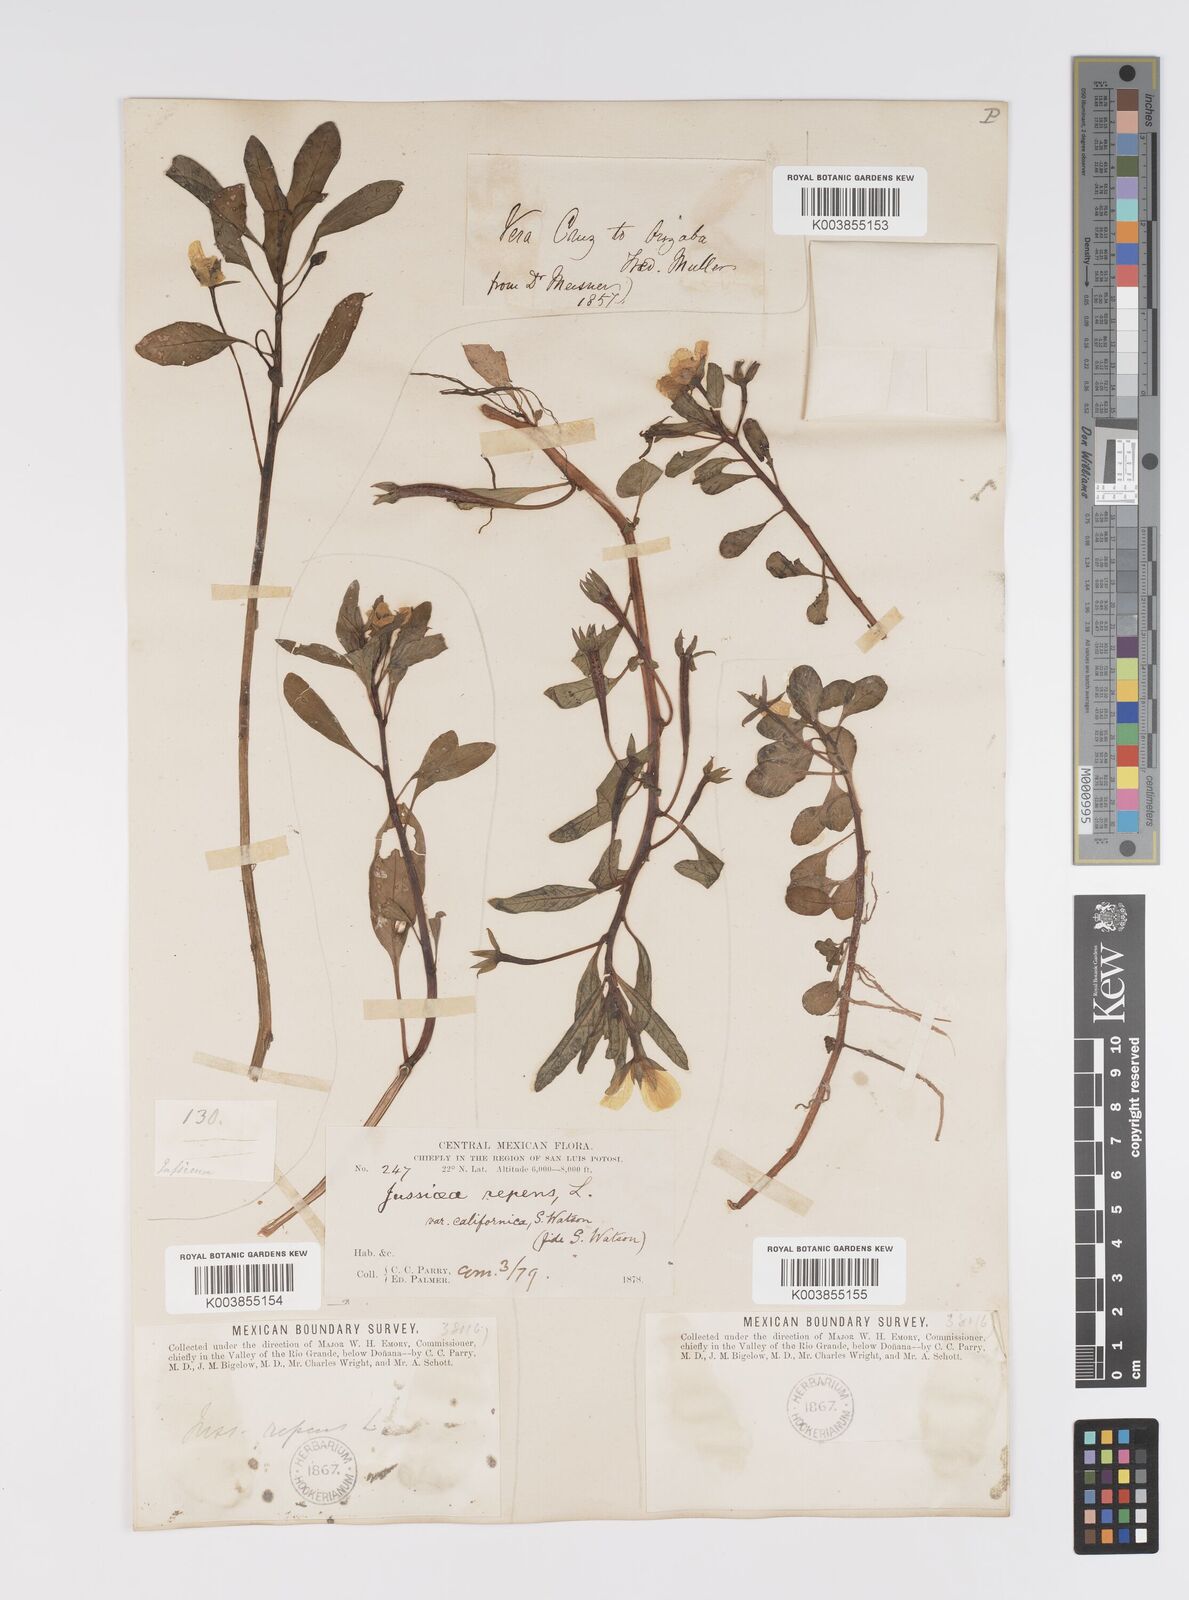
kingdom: Plantae
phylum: Tracheophyta
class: Magnoliopsida
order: Myrtales
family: Onagraceae
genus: Ludwigia
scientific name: Ludwigia adscendens
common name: Creeping water primrose
